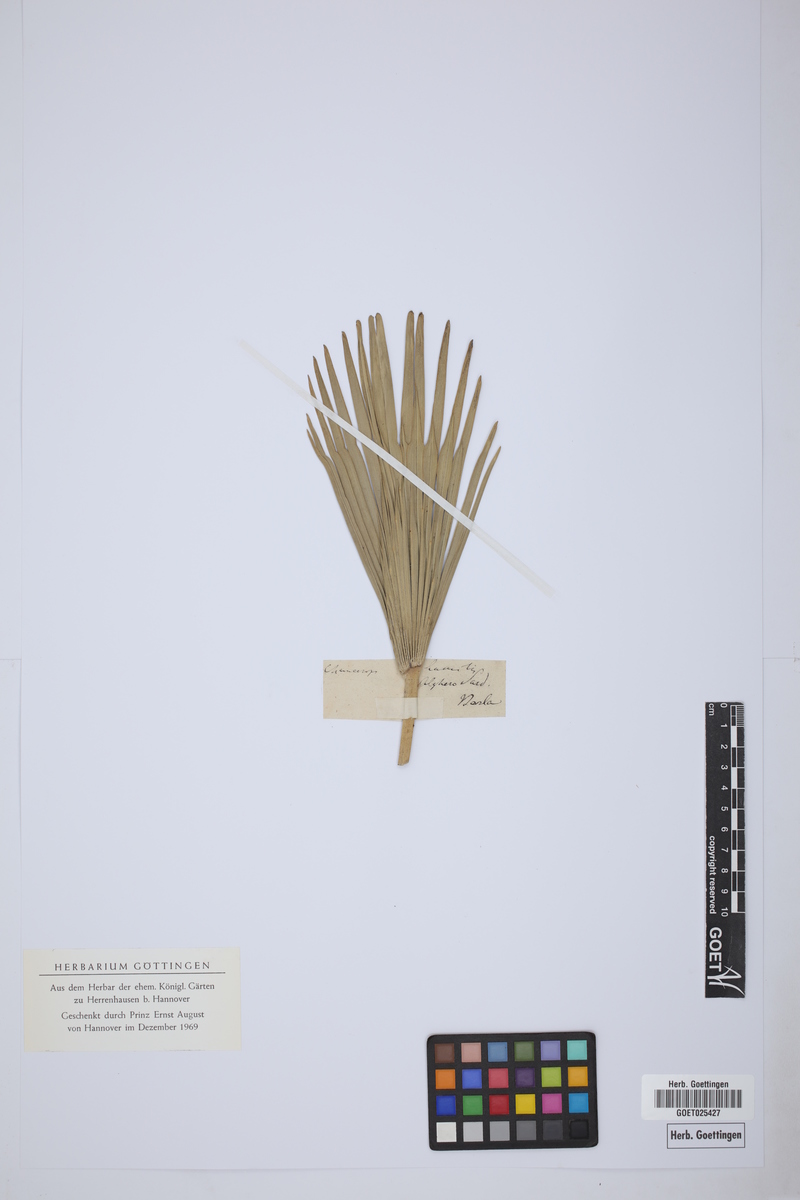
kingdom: Plantae
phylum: Tracheophyta
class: Liliopsida
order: Arecales
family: Arecaceae
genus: Chamaerops
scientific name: Chamaerops humilis
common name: Dwarf fan palm
